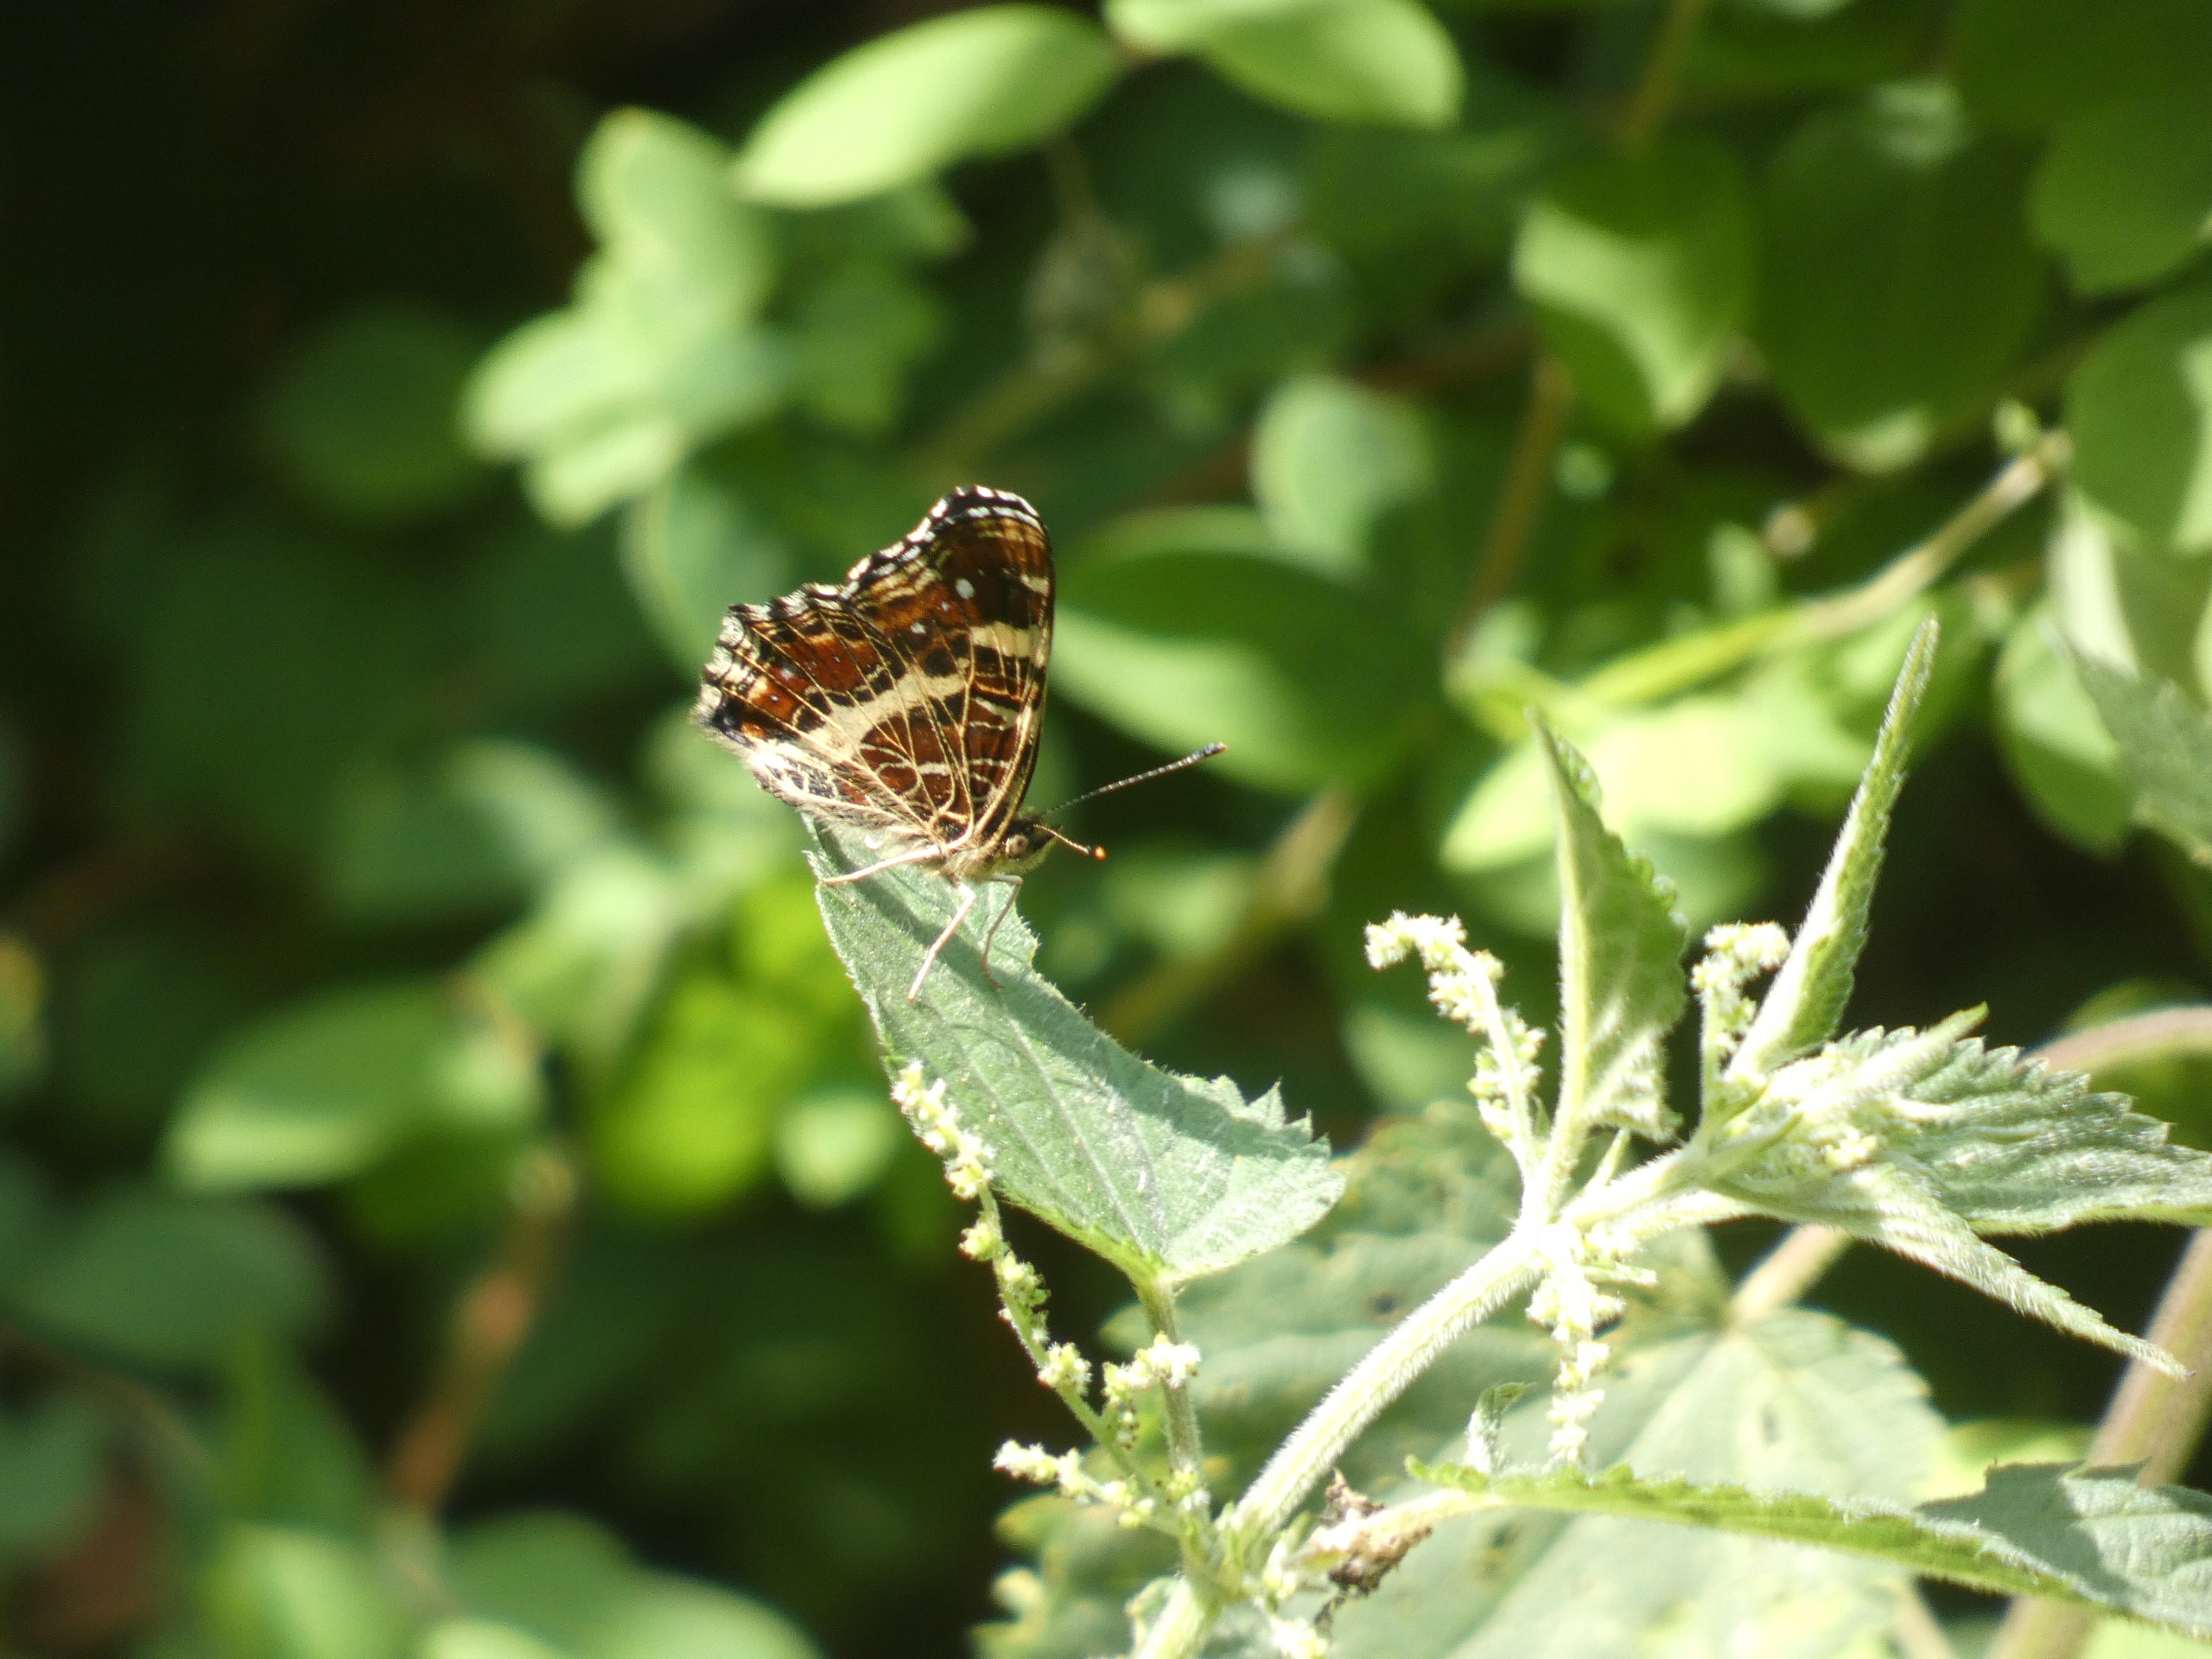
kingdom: Animalia
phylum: Arthropoda
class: Insecta
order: Lepidoptera
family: Nymphalidae
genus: Araschnia
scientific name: Araschnia levana
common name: Nældesommerfugl
